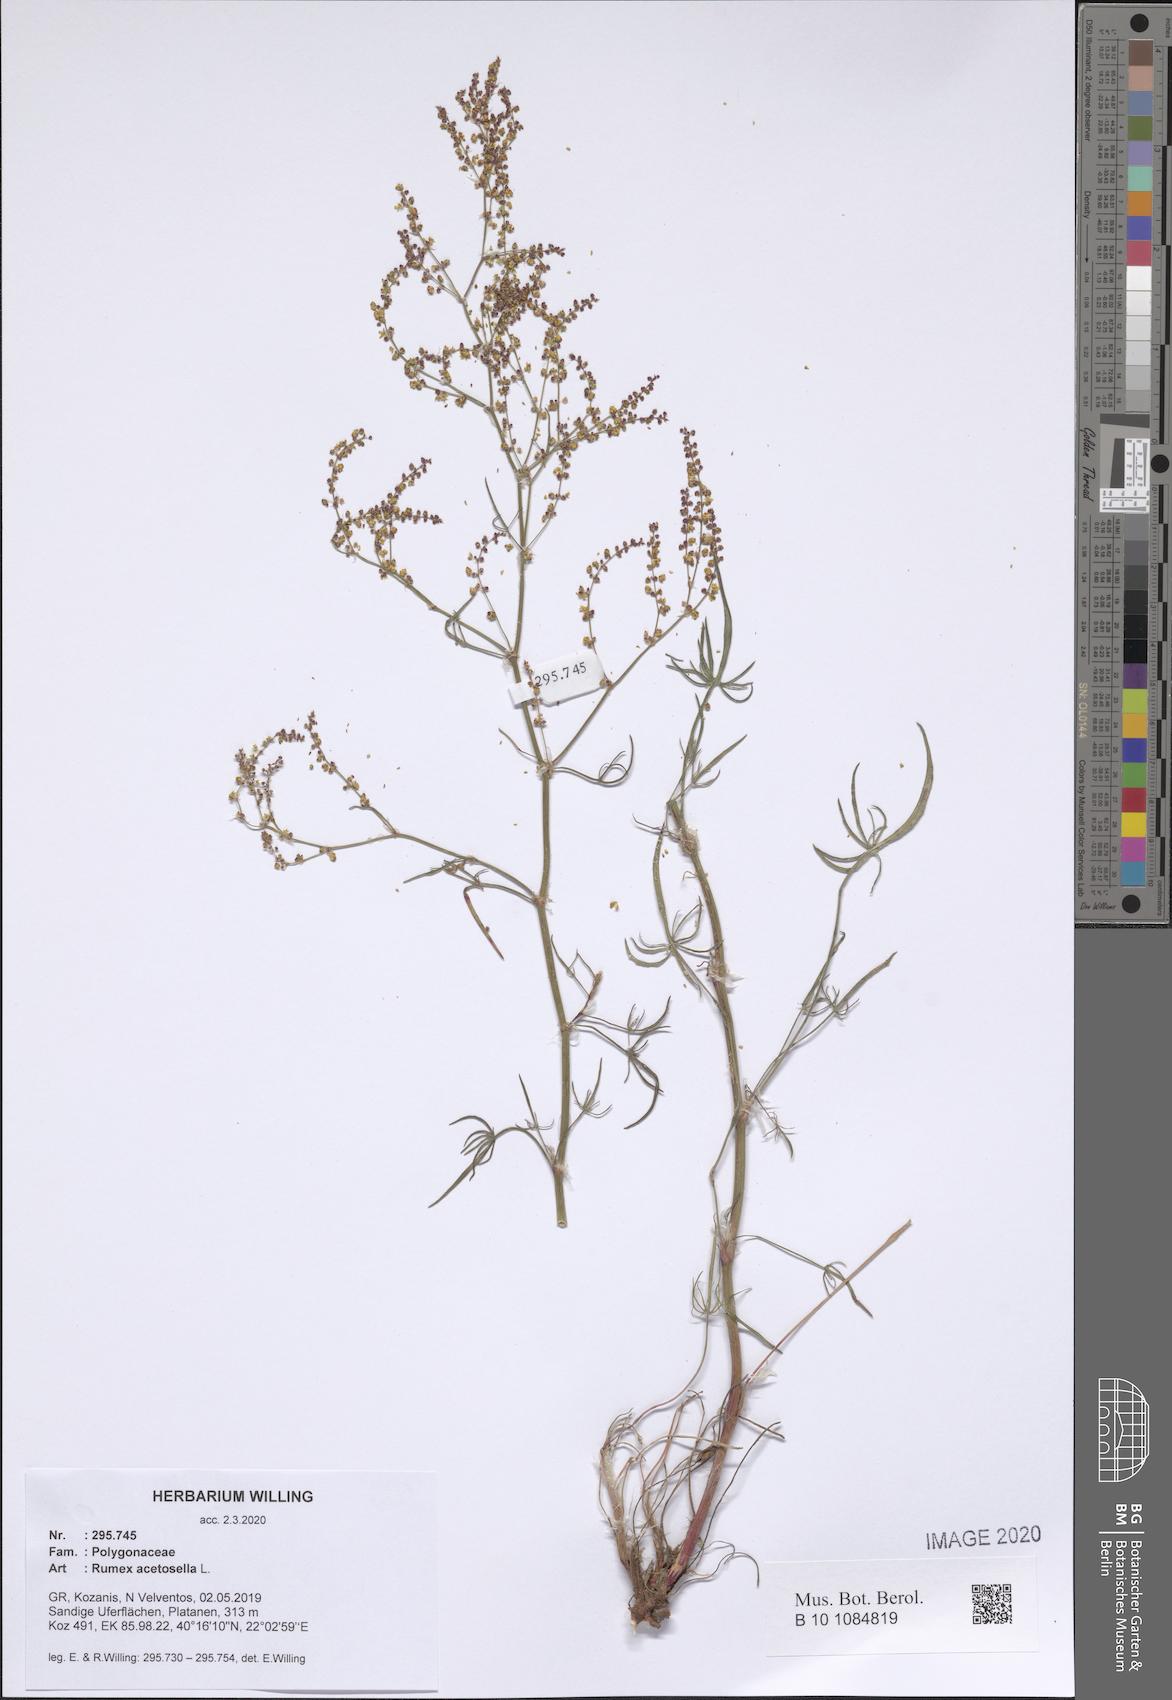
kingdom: Plantae
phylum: Tracheophyta
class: Magnoliopsida
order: Caryophyllales
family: Polygonaceae
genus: Rumex
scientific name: Rumex acetosella
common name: Common sheep sorrel
